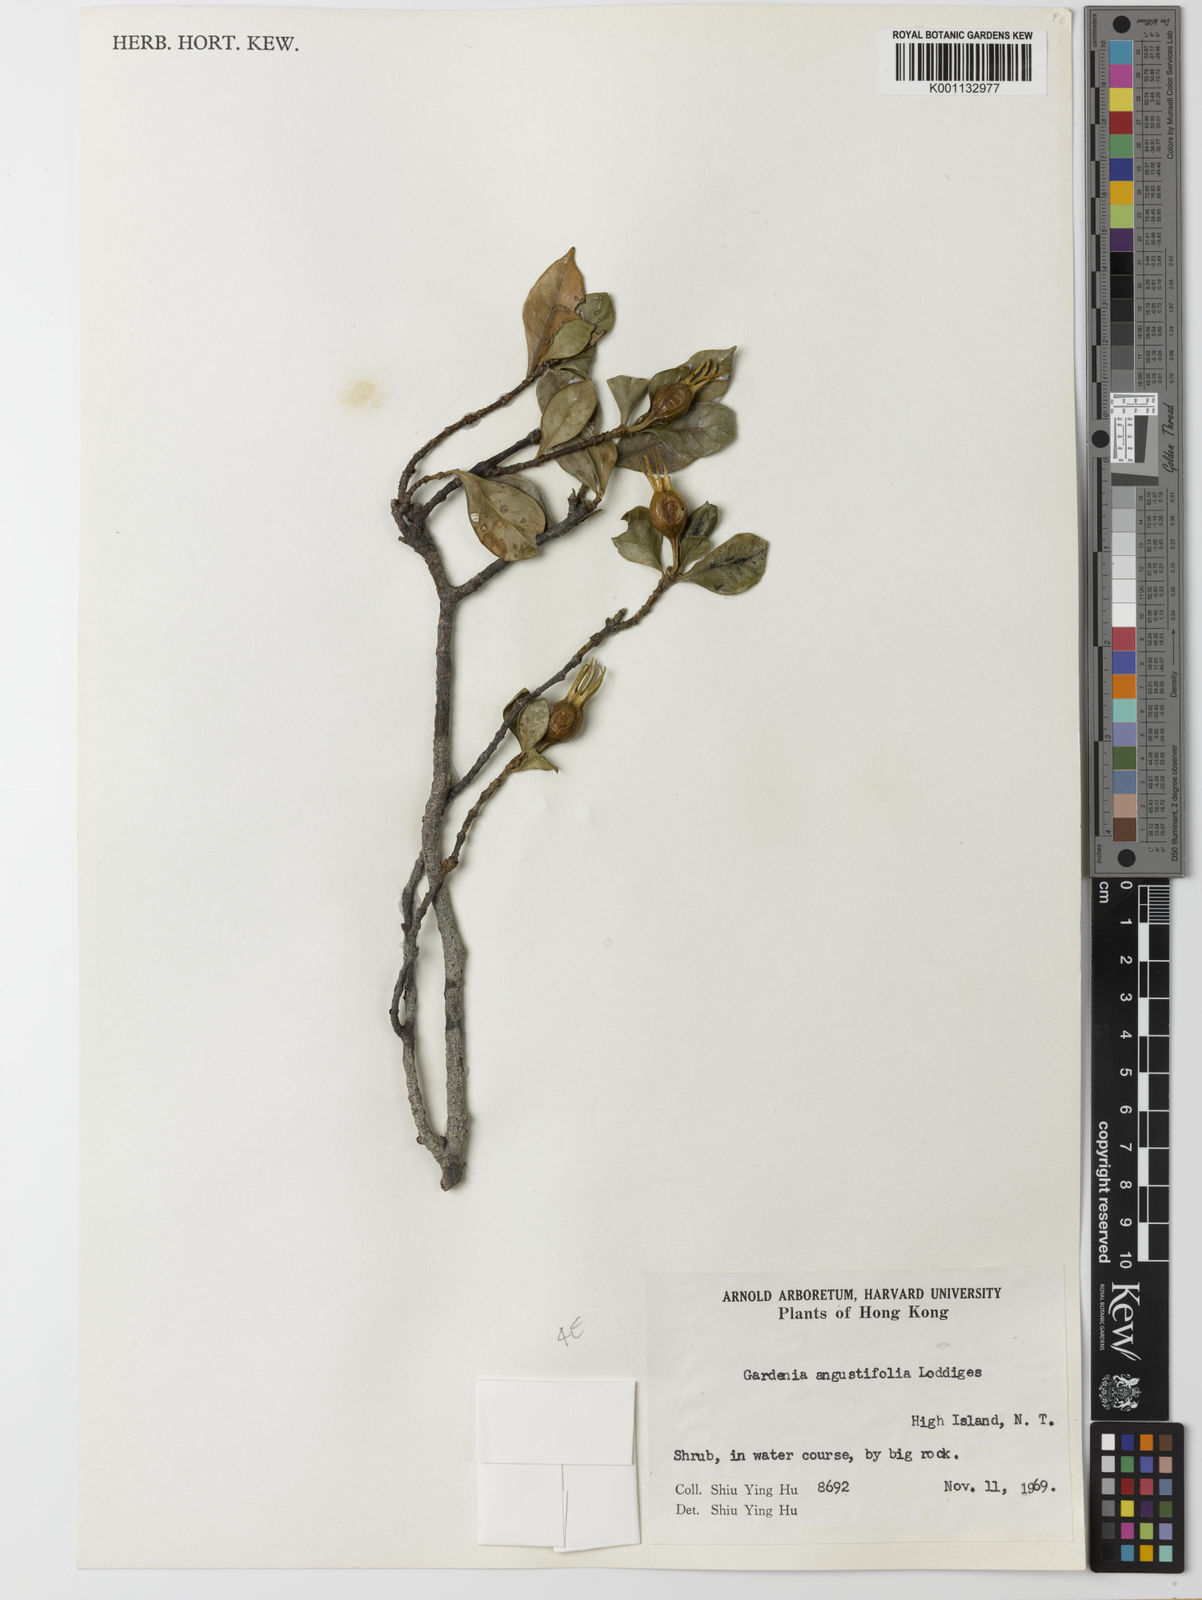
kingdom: Plantae
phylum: Tracheophyta
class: Magnoliopsida
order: Gentianales
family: Rubiaceae
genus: Gardenia
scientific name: Gardenia jasminoides
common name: Cape-jasmine
